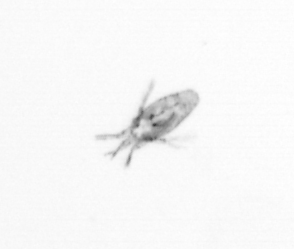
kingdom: Animalia
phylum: Arthropoda
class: Copepoda
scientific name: Copepoda
